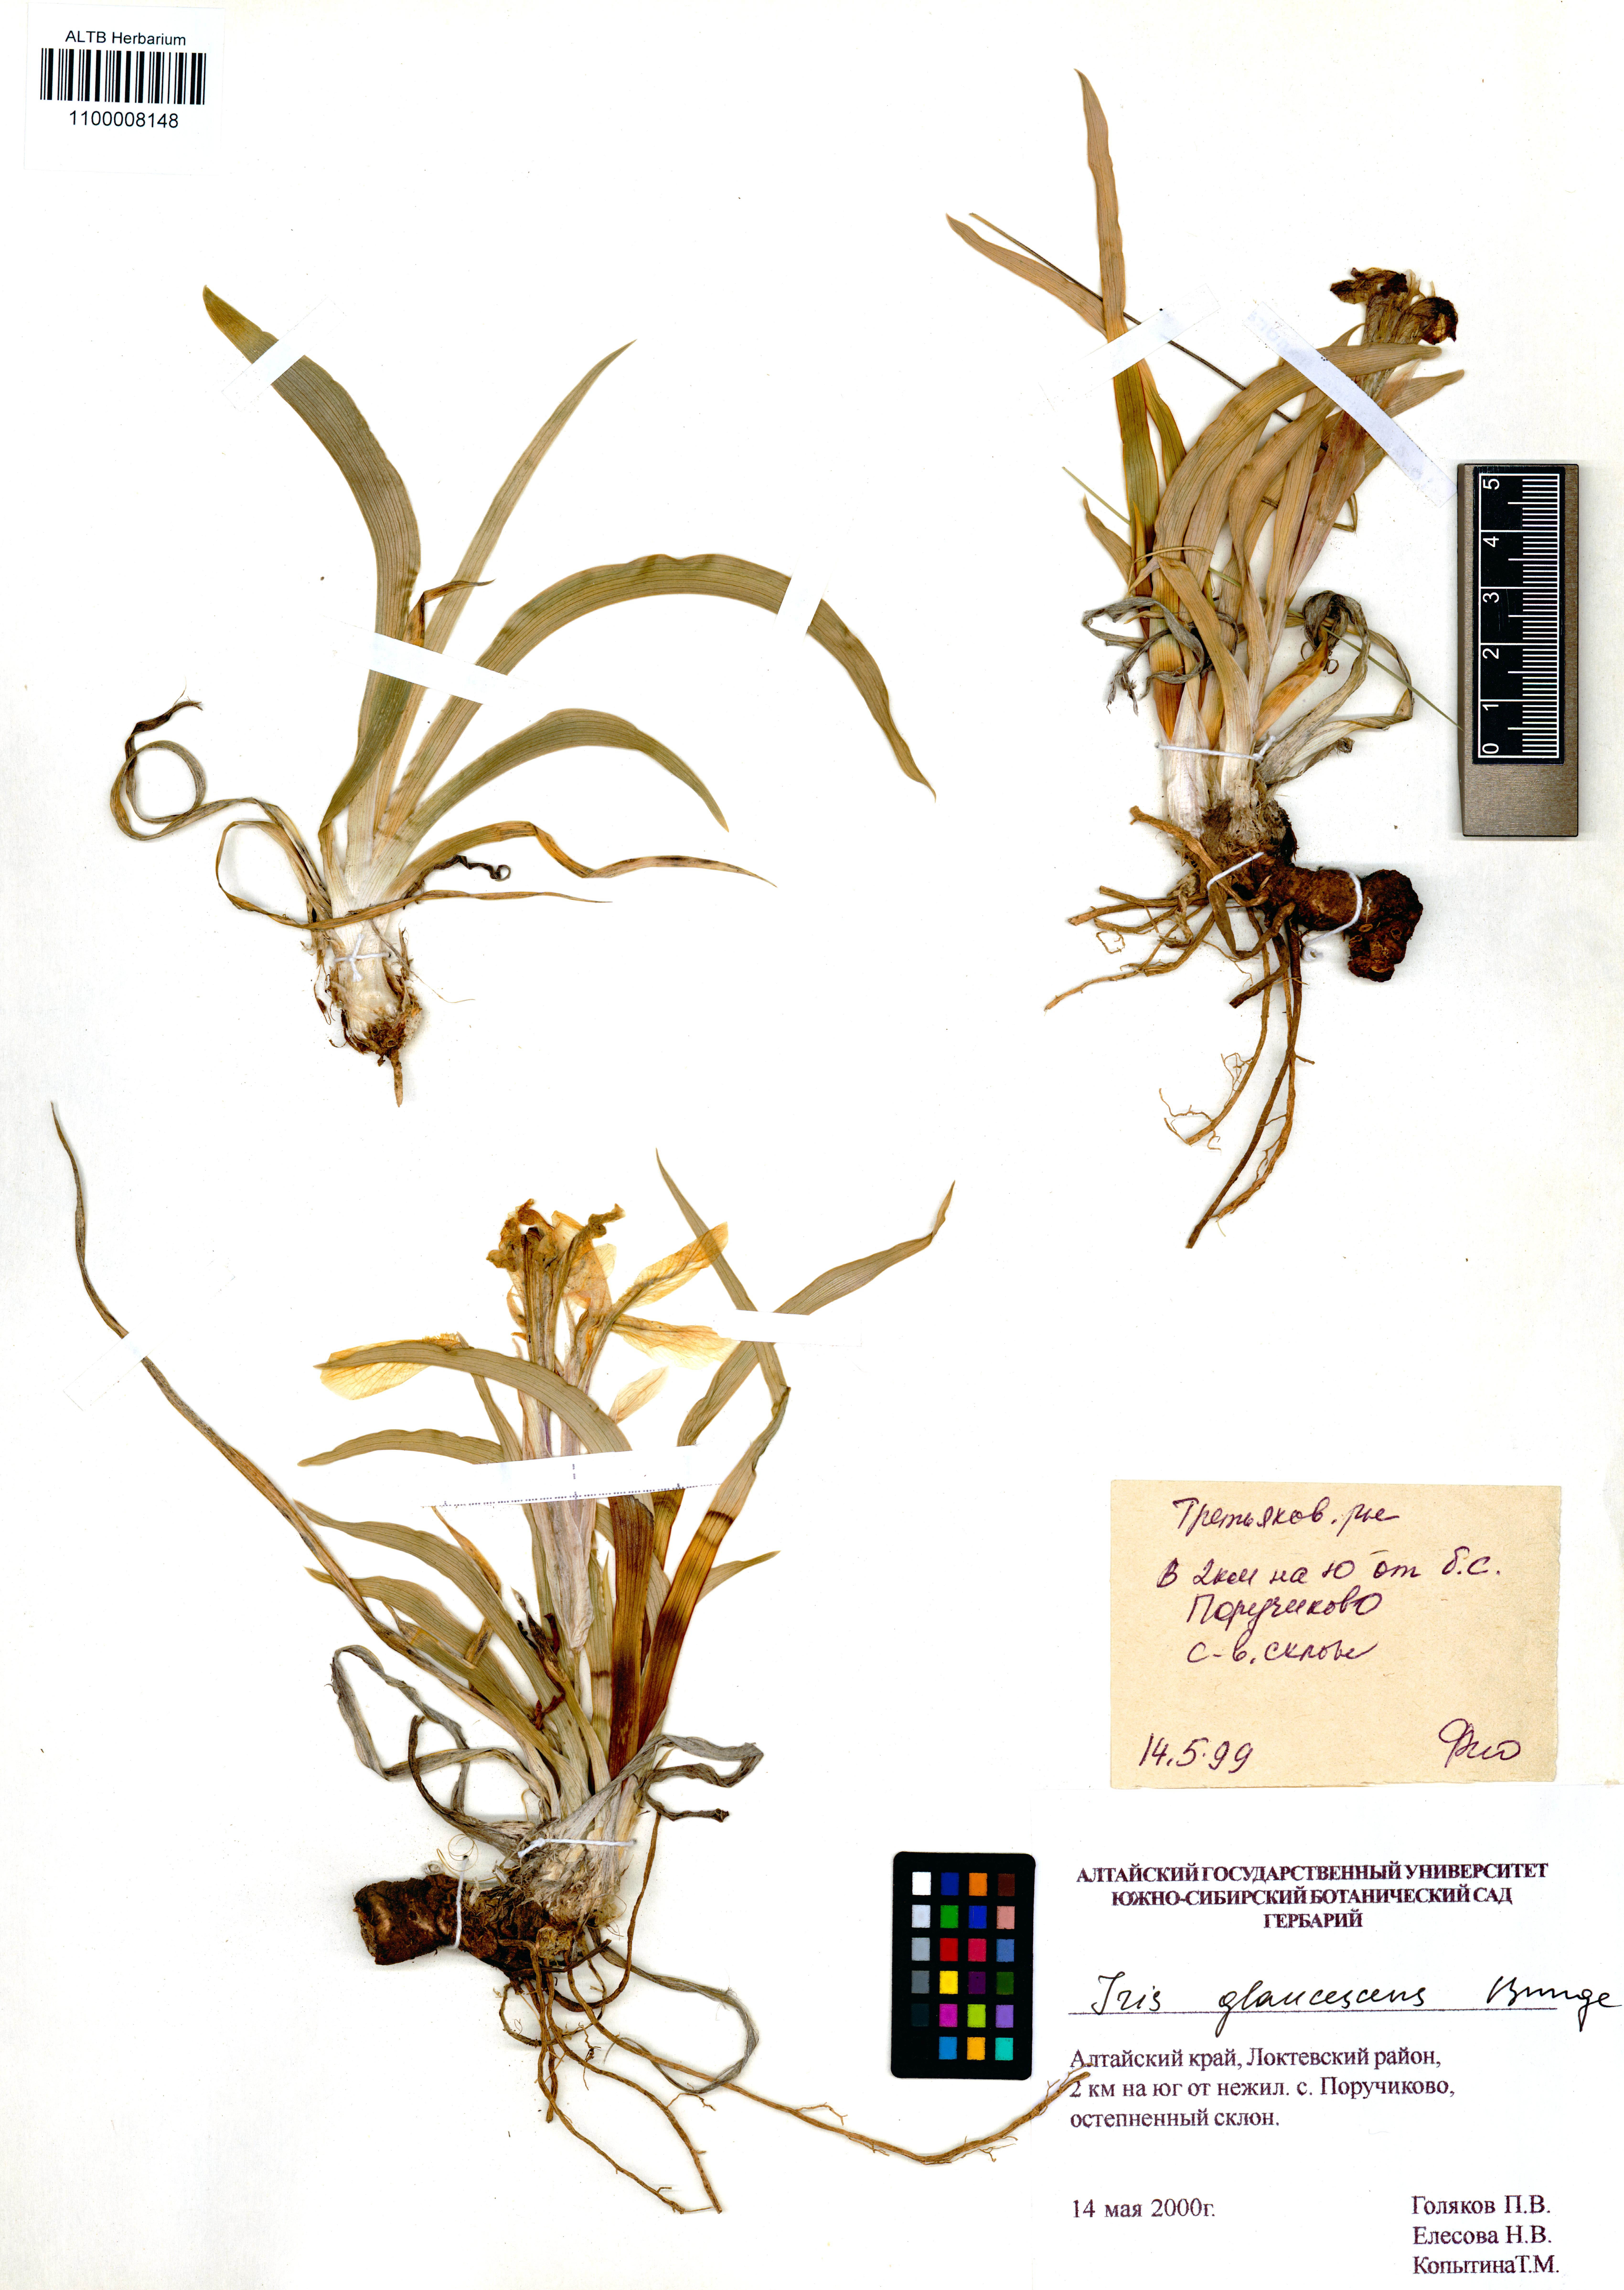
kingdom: Plantae
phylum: Tracheophyta
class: Liliopsida
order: Asparagales
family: Iridaceae
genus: Iris
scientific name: Iris glaucescens
